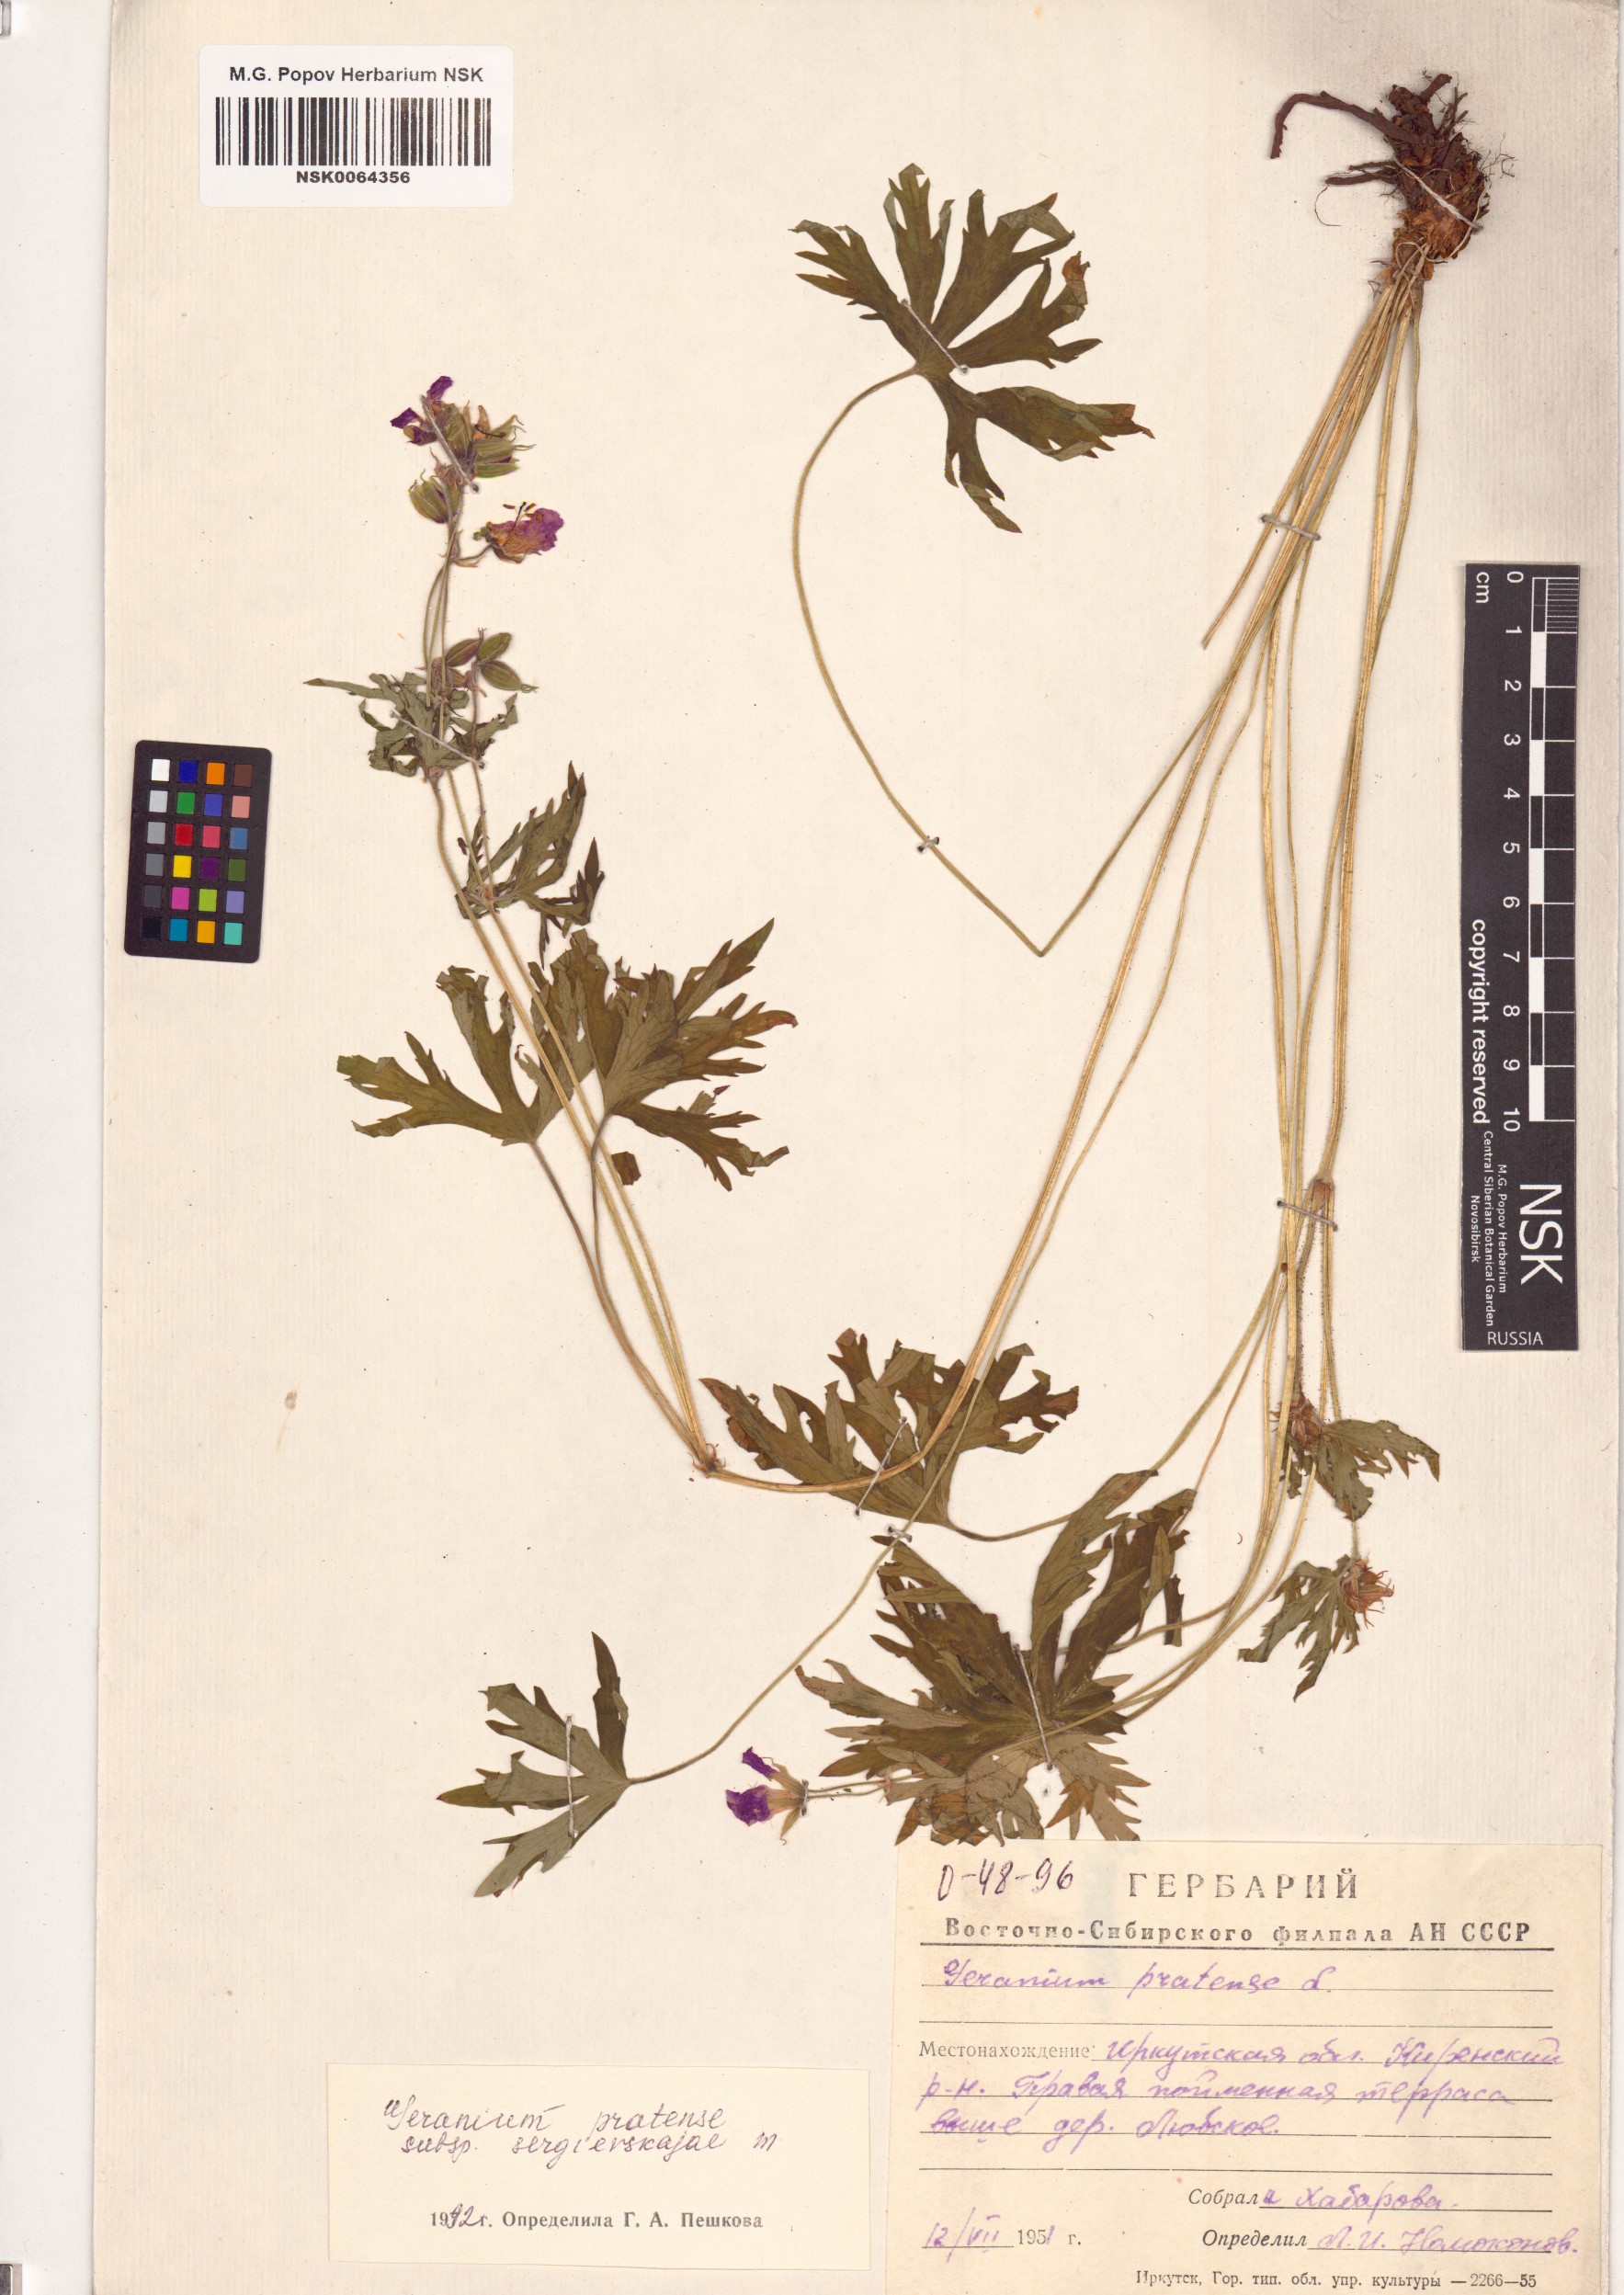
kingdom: Plantae
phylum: Tracheophyta
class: Magnoliopsida
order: Geraniales
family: Geraniaceae
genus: Geranium
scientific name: Geranium pratense
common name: Meadow crane's-bill
